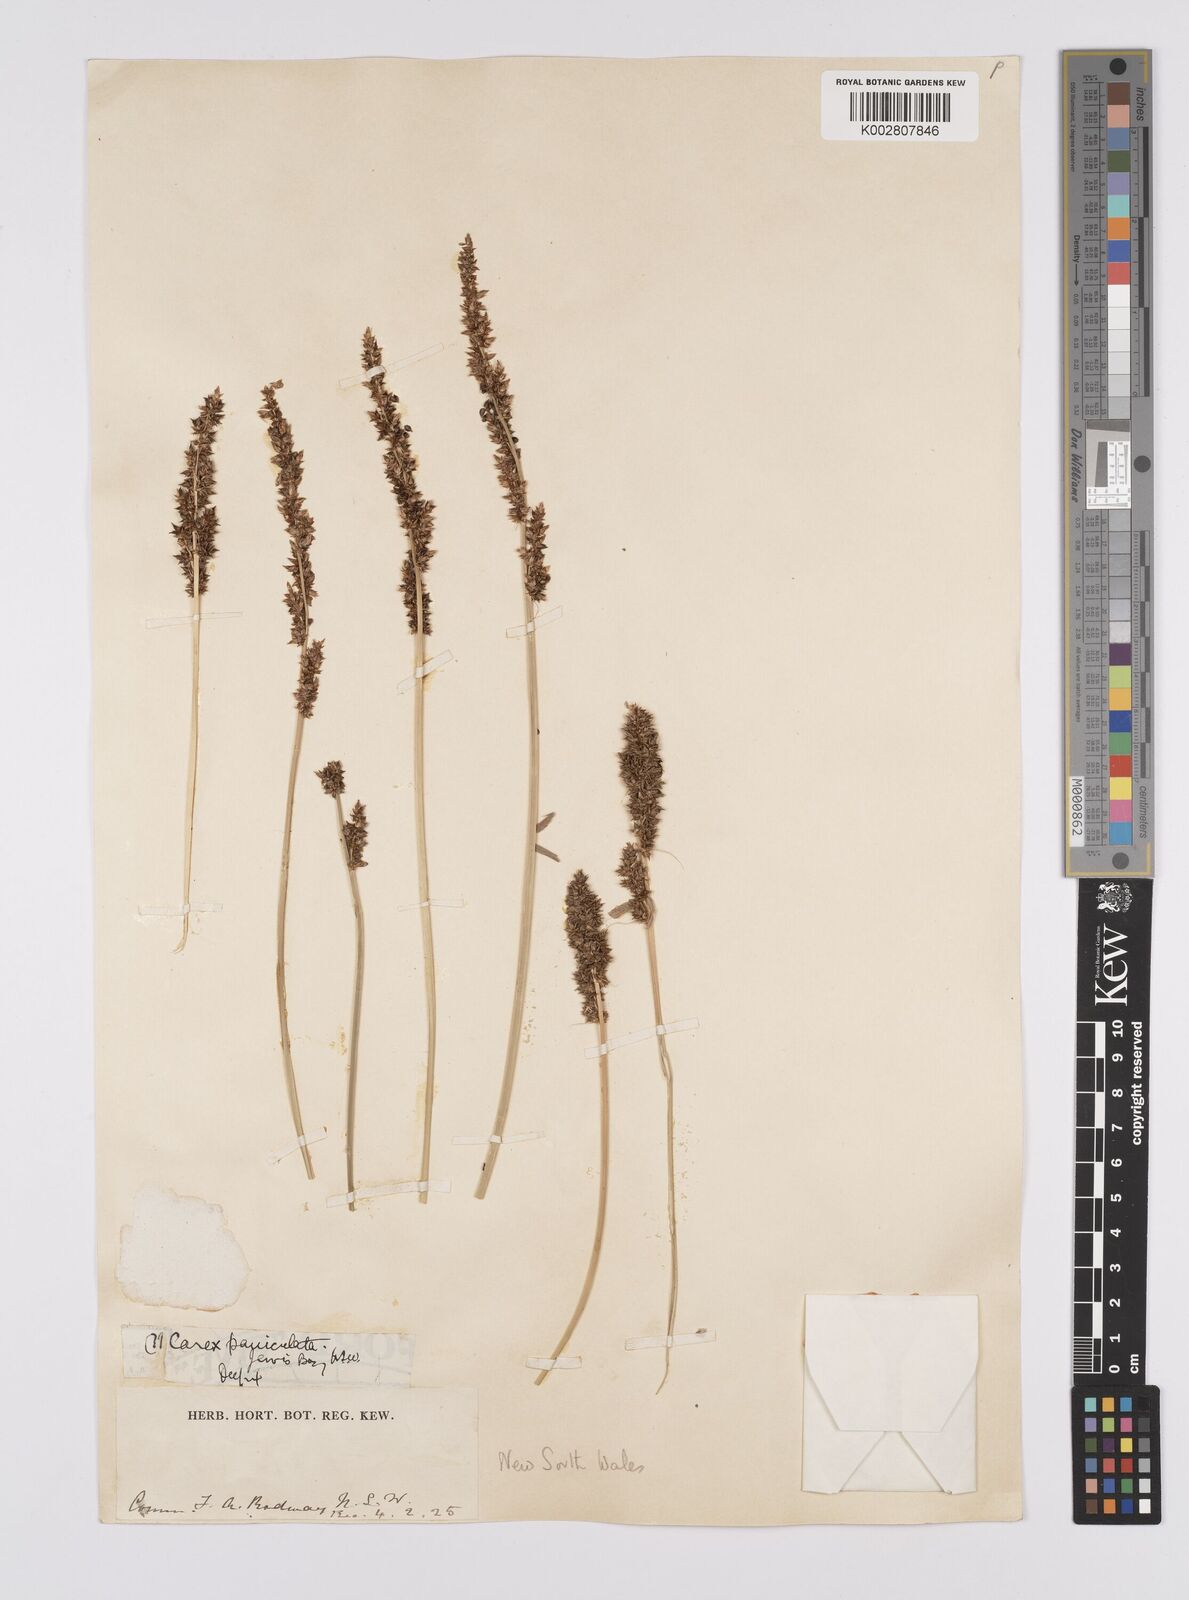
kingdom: Plantae
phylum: Tracheophyta
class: Liliopsida
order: Poales
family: Cyperaceae
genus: Carex
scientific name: Carex appressa
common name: Tussock sedge
